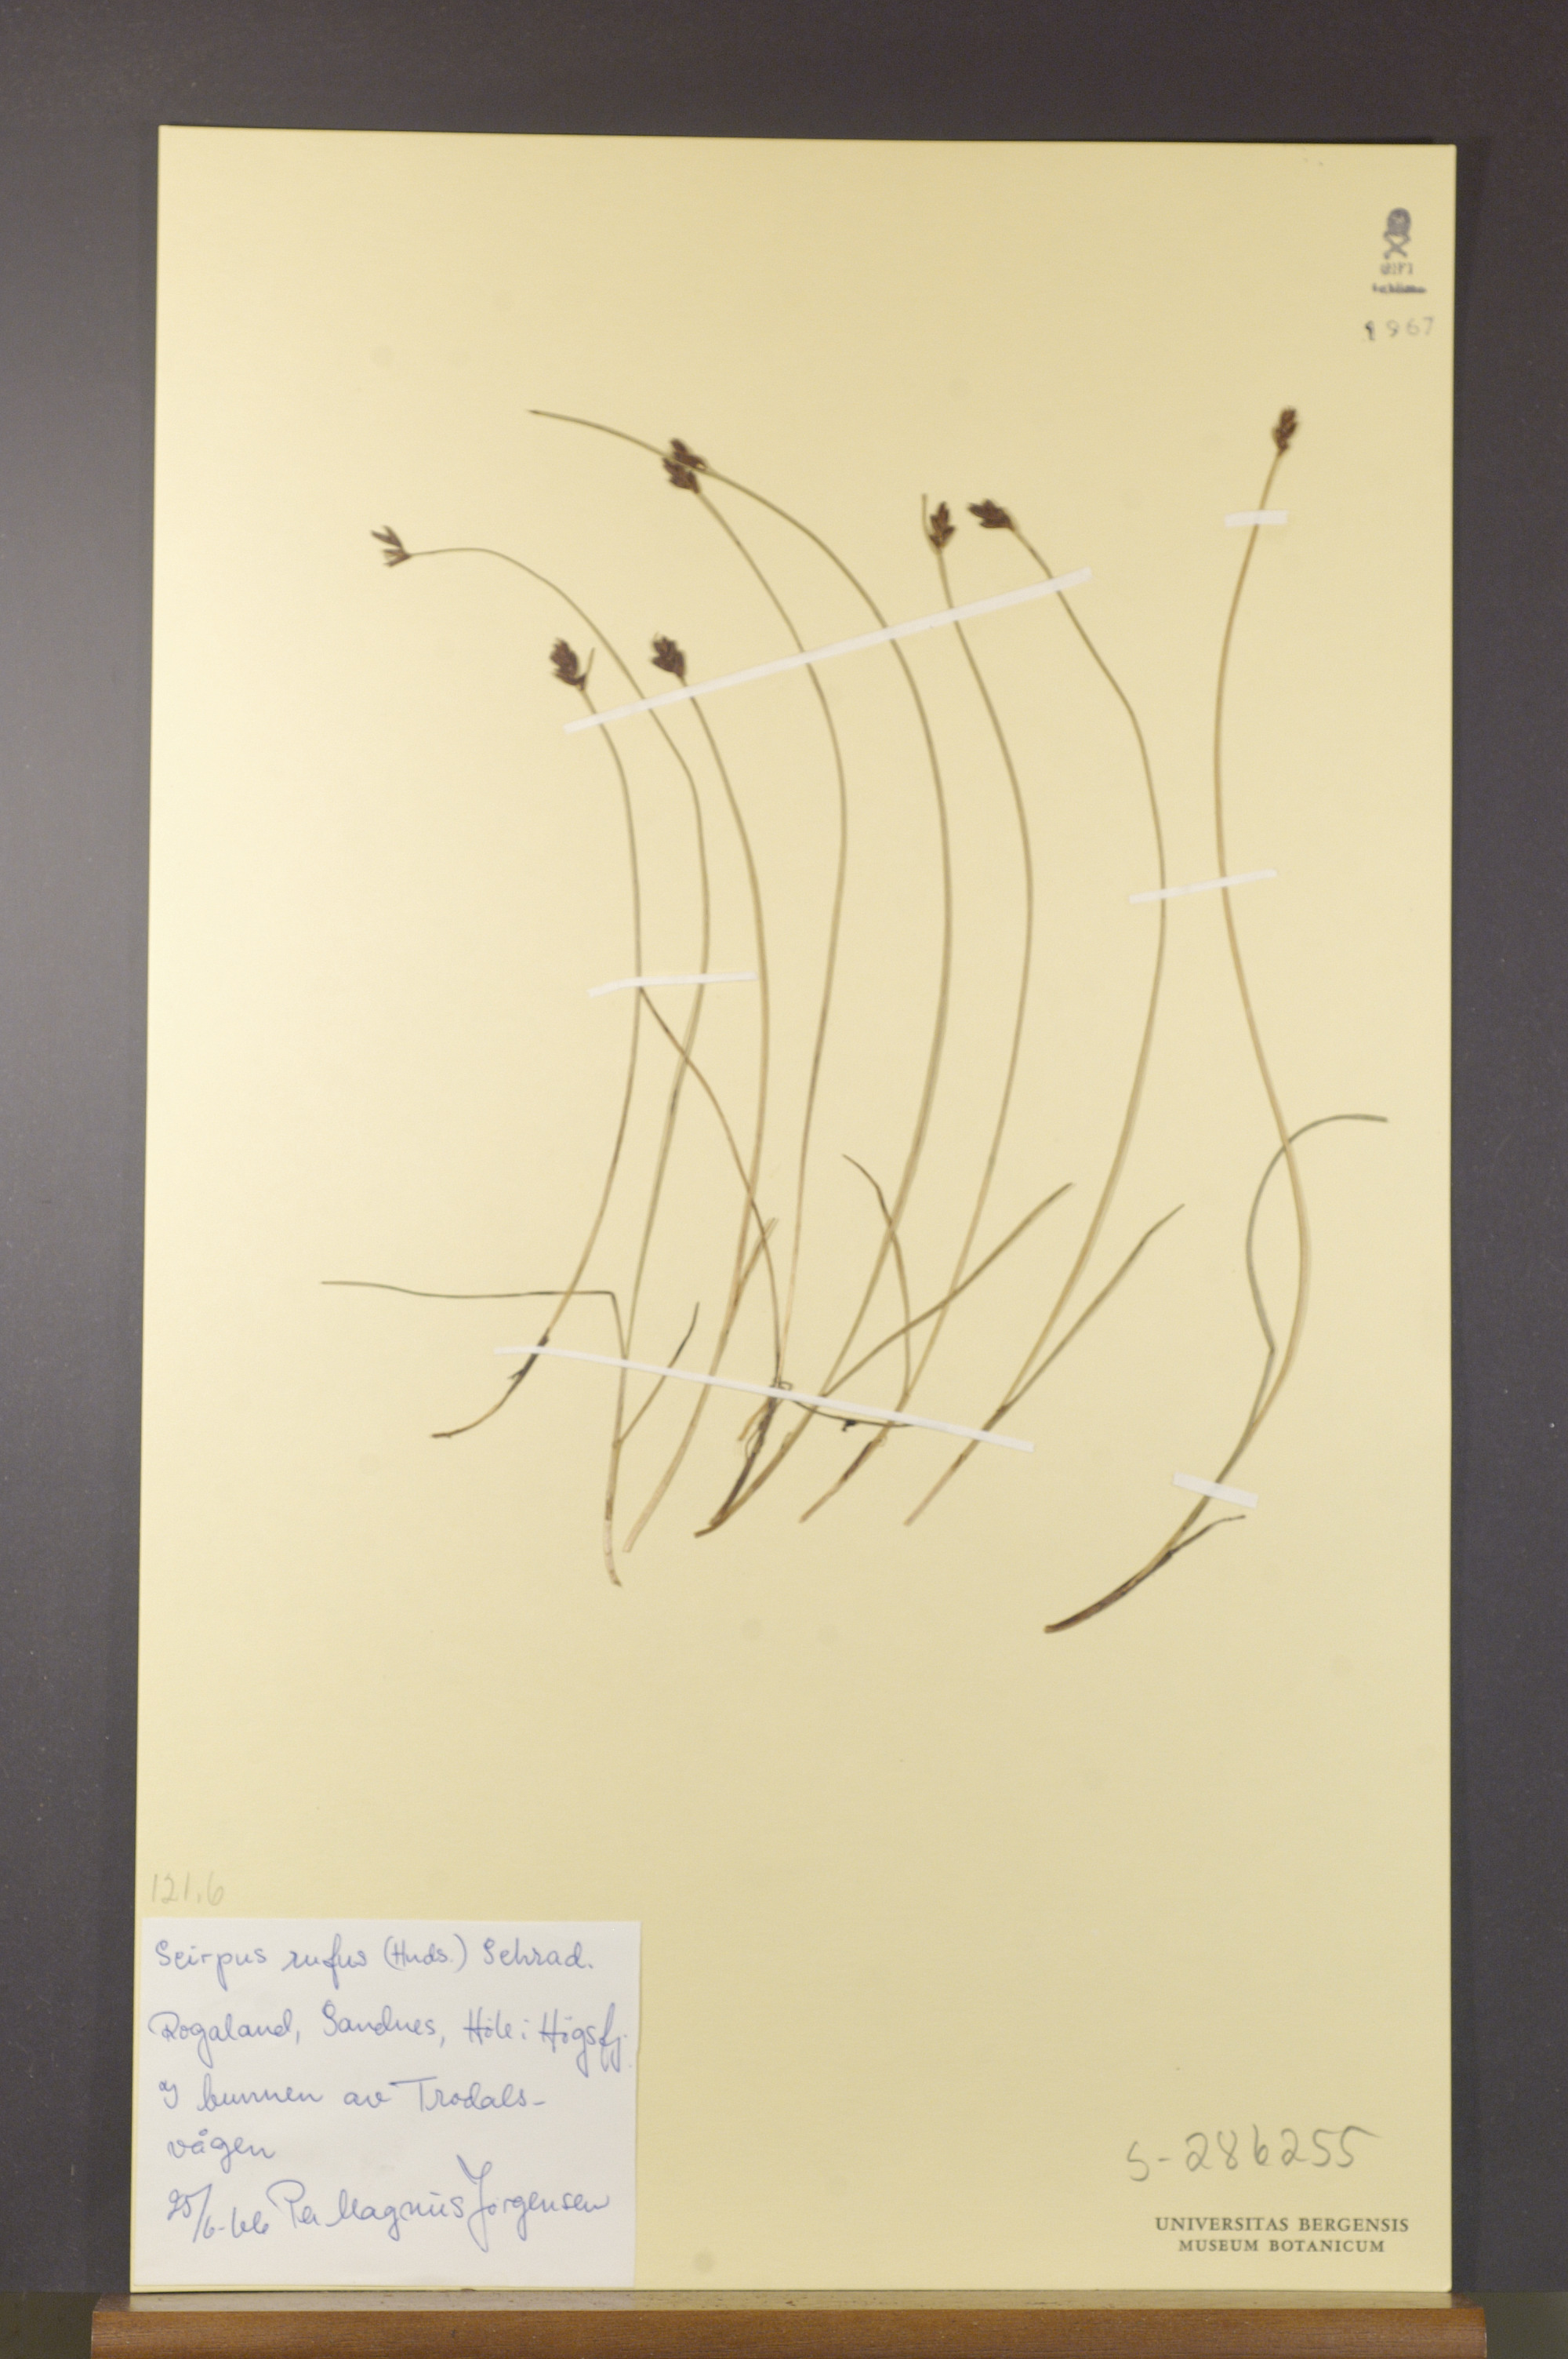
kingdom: Plantae
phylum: Tracheophyta
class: Liliopsida
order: Poales
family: Cyperaceae
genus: Blysmus
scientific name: Blysmus rufus
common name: Saltmarsh flat-sedge
